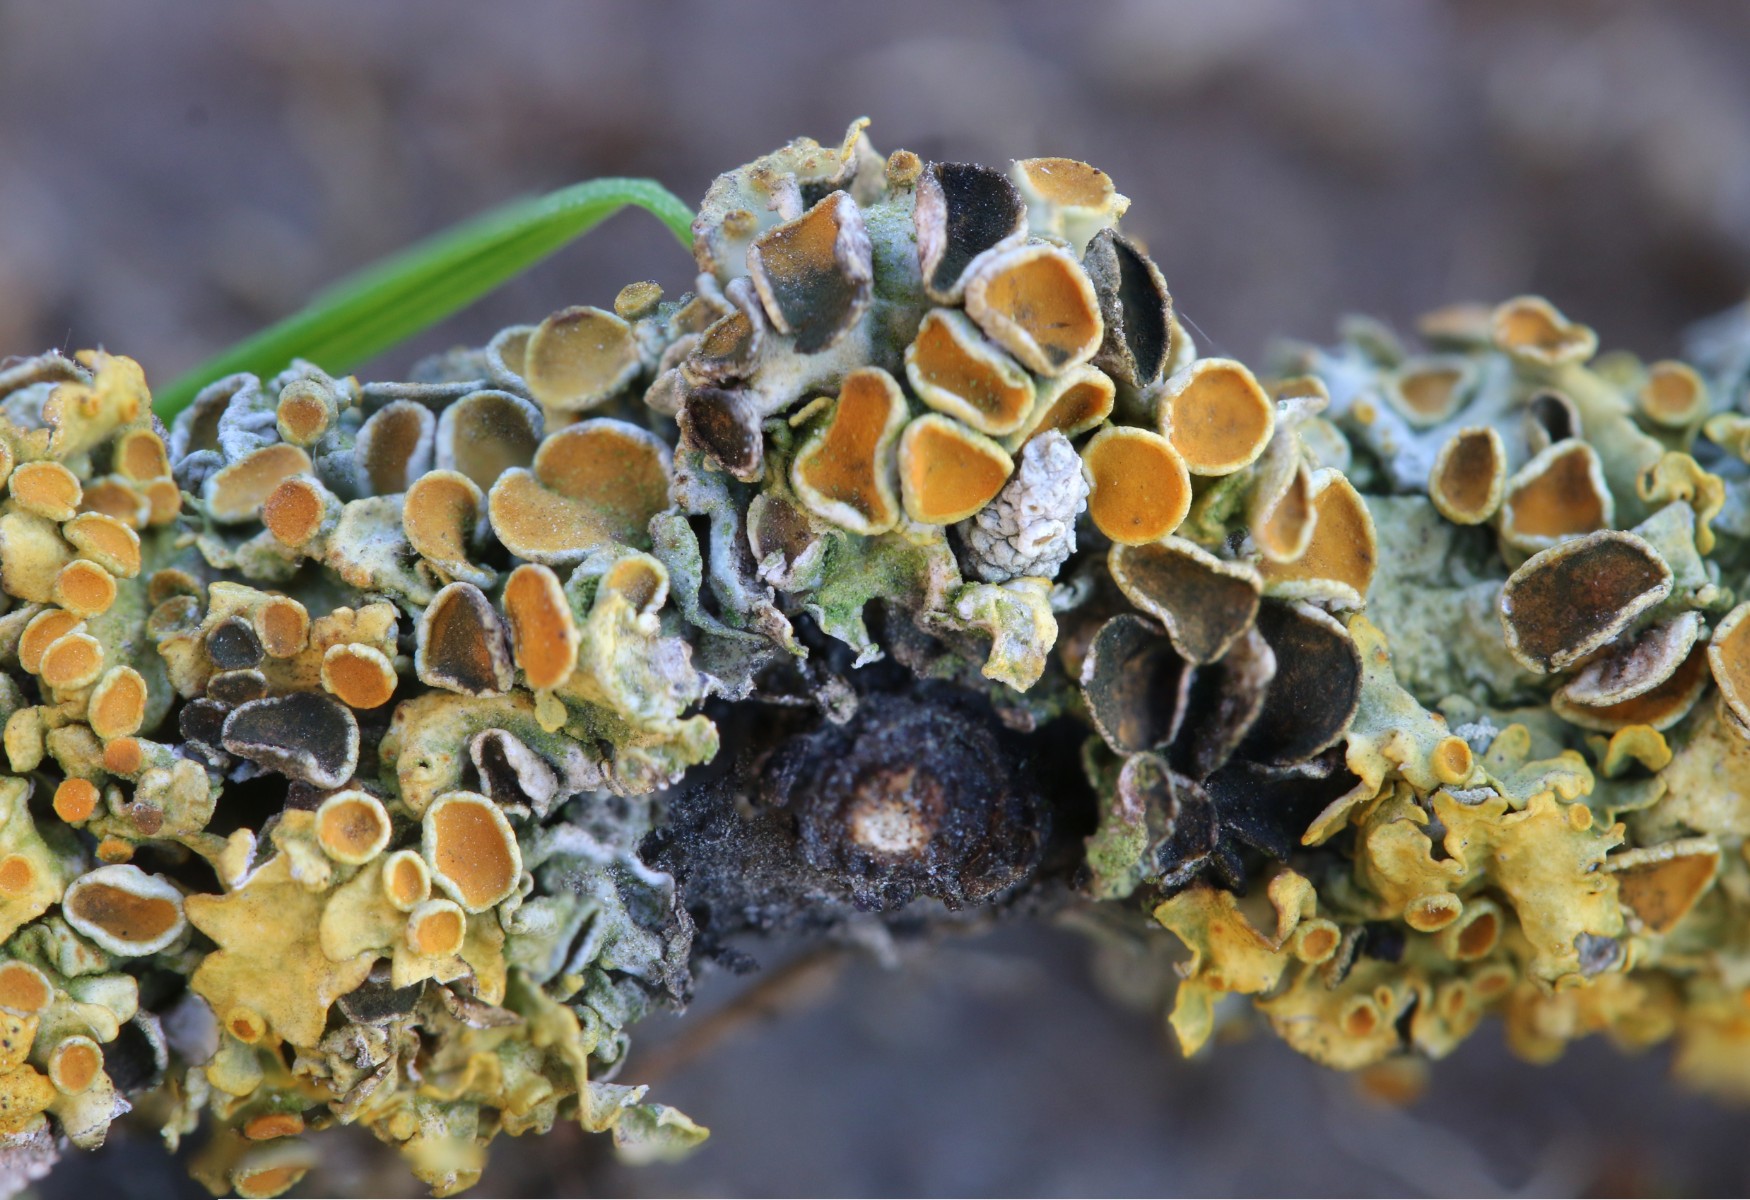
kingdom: Fungi
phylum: Ascomycota
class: Dothideomycetes
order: Mycosphaerellales
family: Teratosphaeriaceae
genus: Xanthoriicola
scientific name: Xanthoriicola physciae
